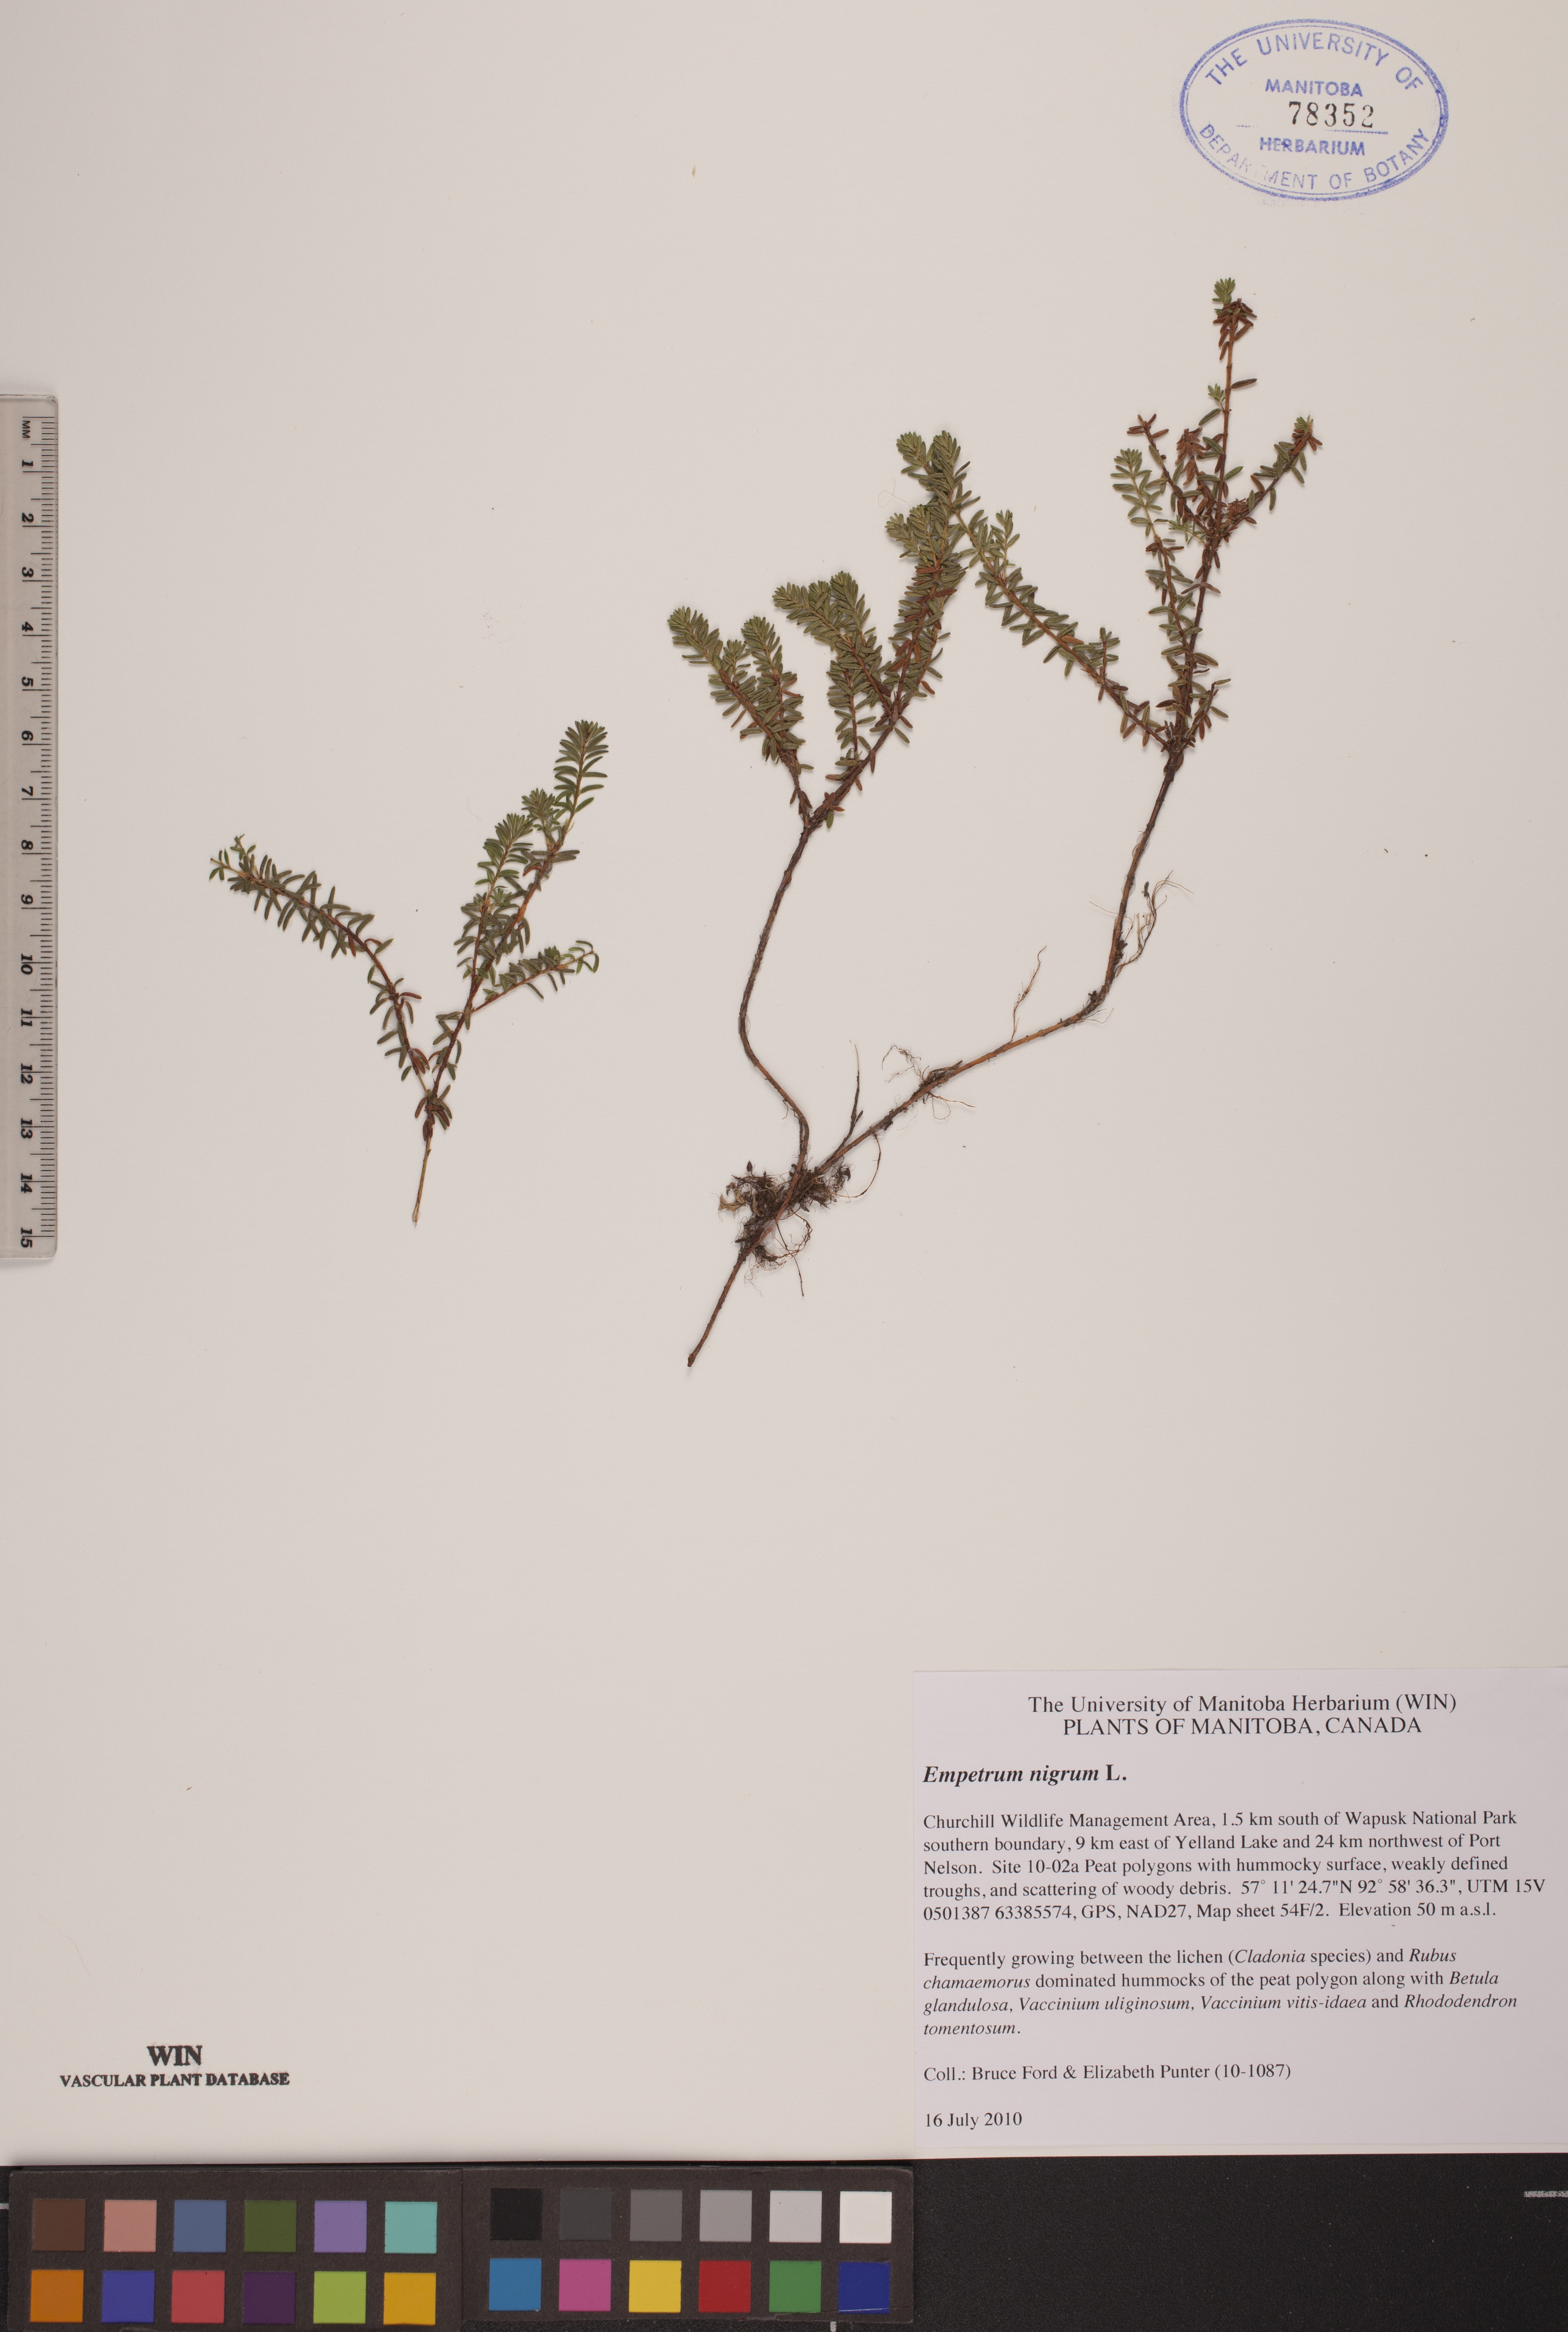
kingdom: Plantae
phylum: Tracheophyta
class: Magnoliopsida
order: Ericales
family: Ericaceae
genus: Empetrum
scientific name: Empetrum nigrum
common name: Black crowberry
